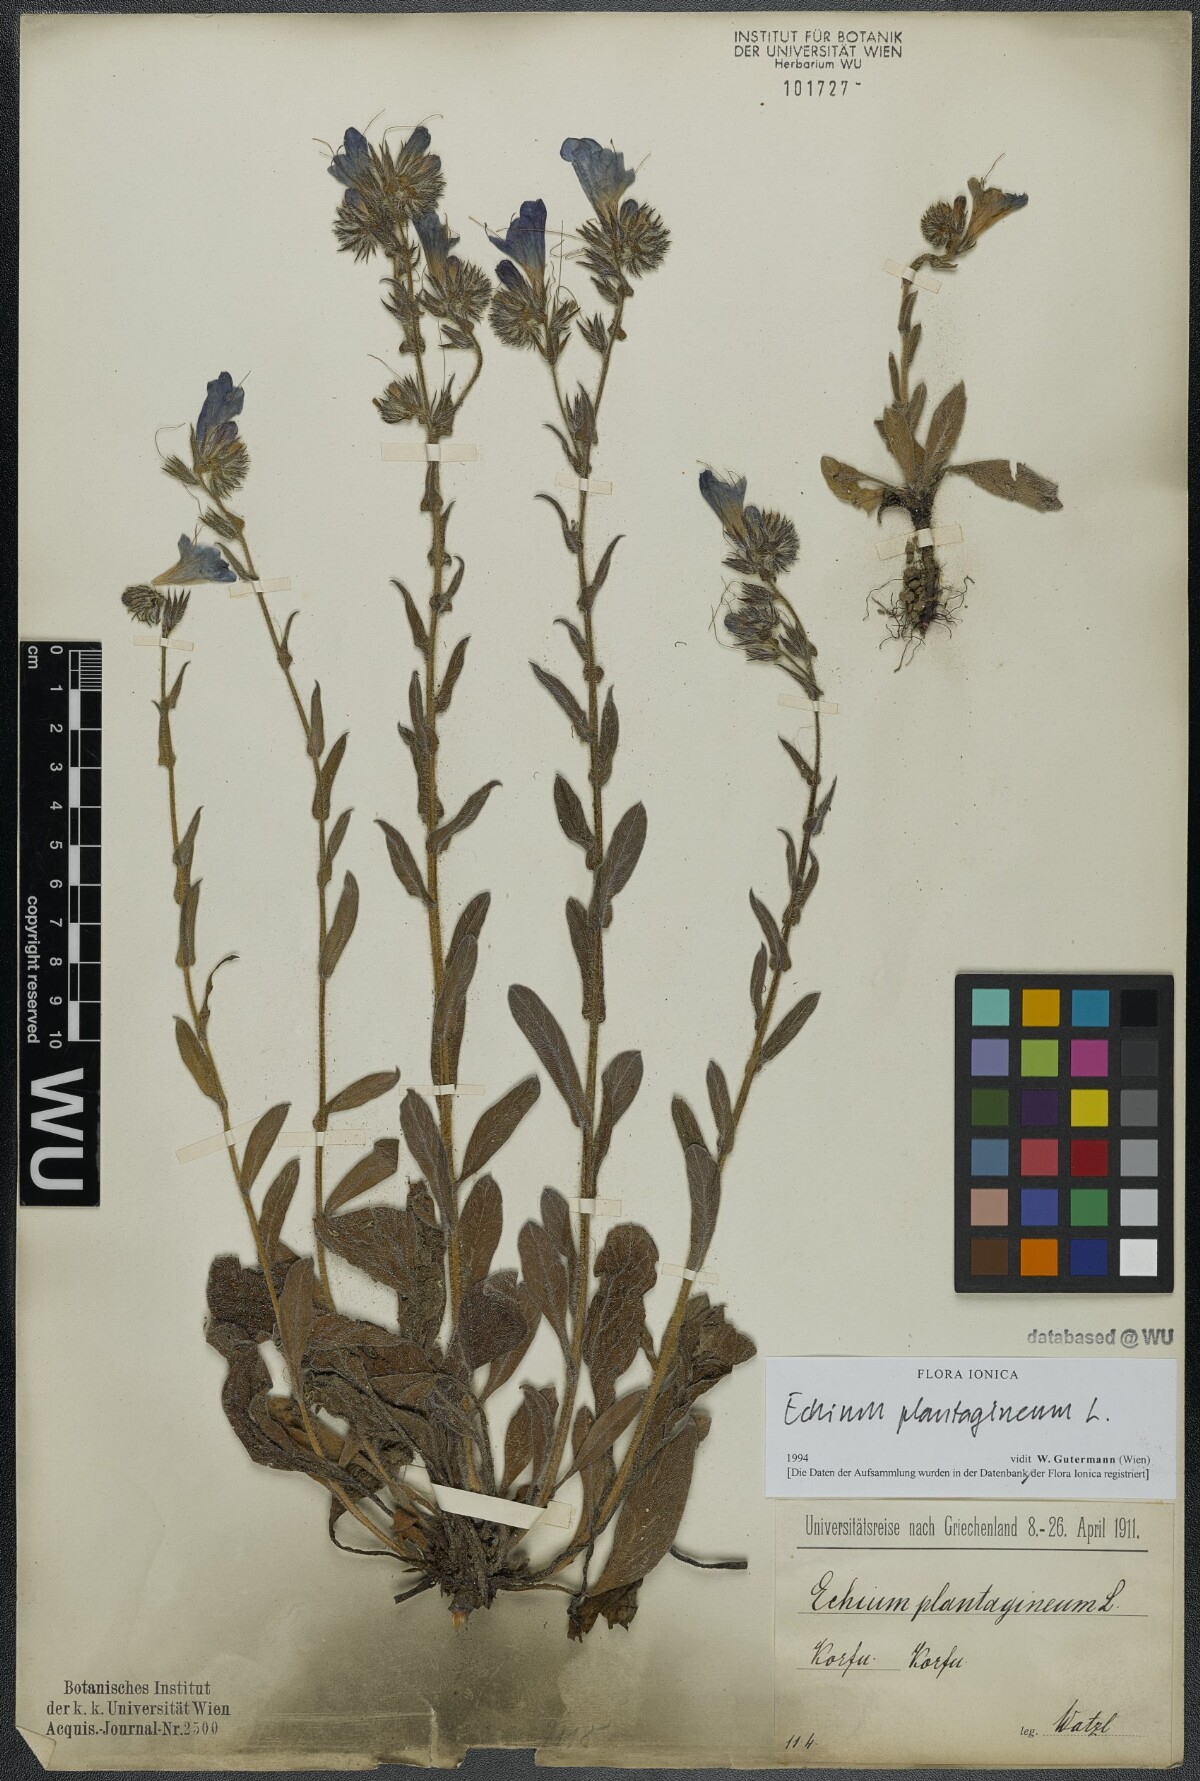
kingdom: Plantae
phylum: Tracheophyta
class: Magnoliopsida
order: Boraginales
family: Boraginaceae
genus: Echium
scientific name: Echium plantagineum
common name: Purple viper's-bugloss
